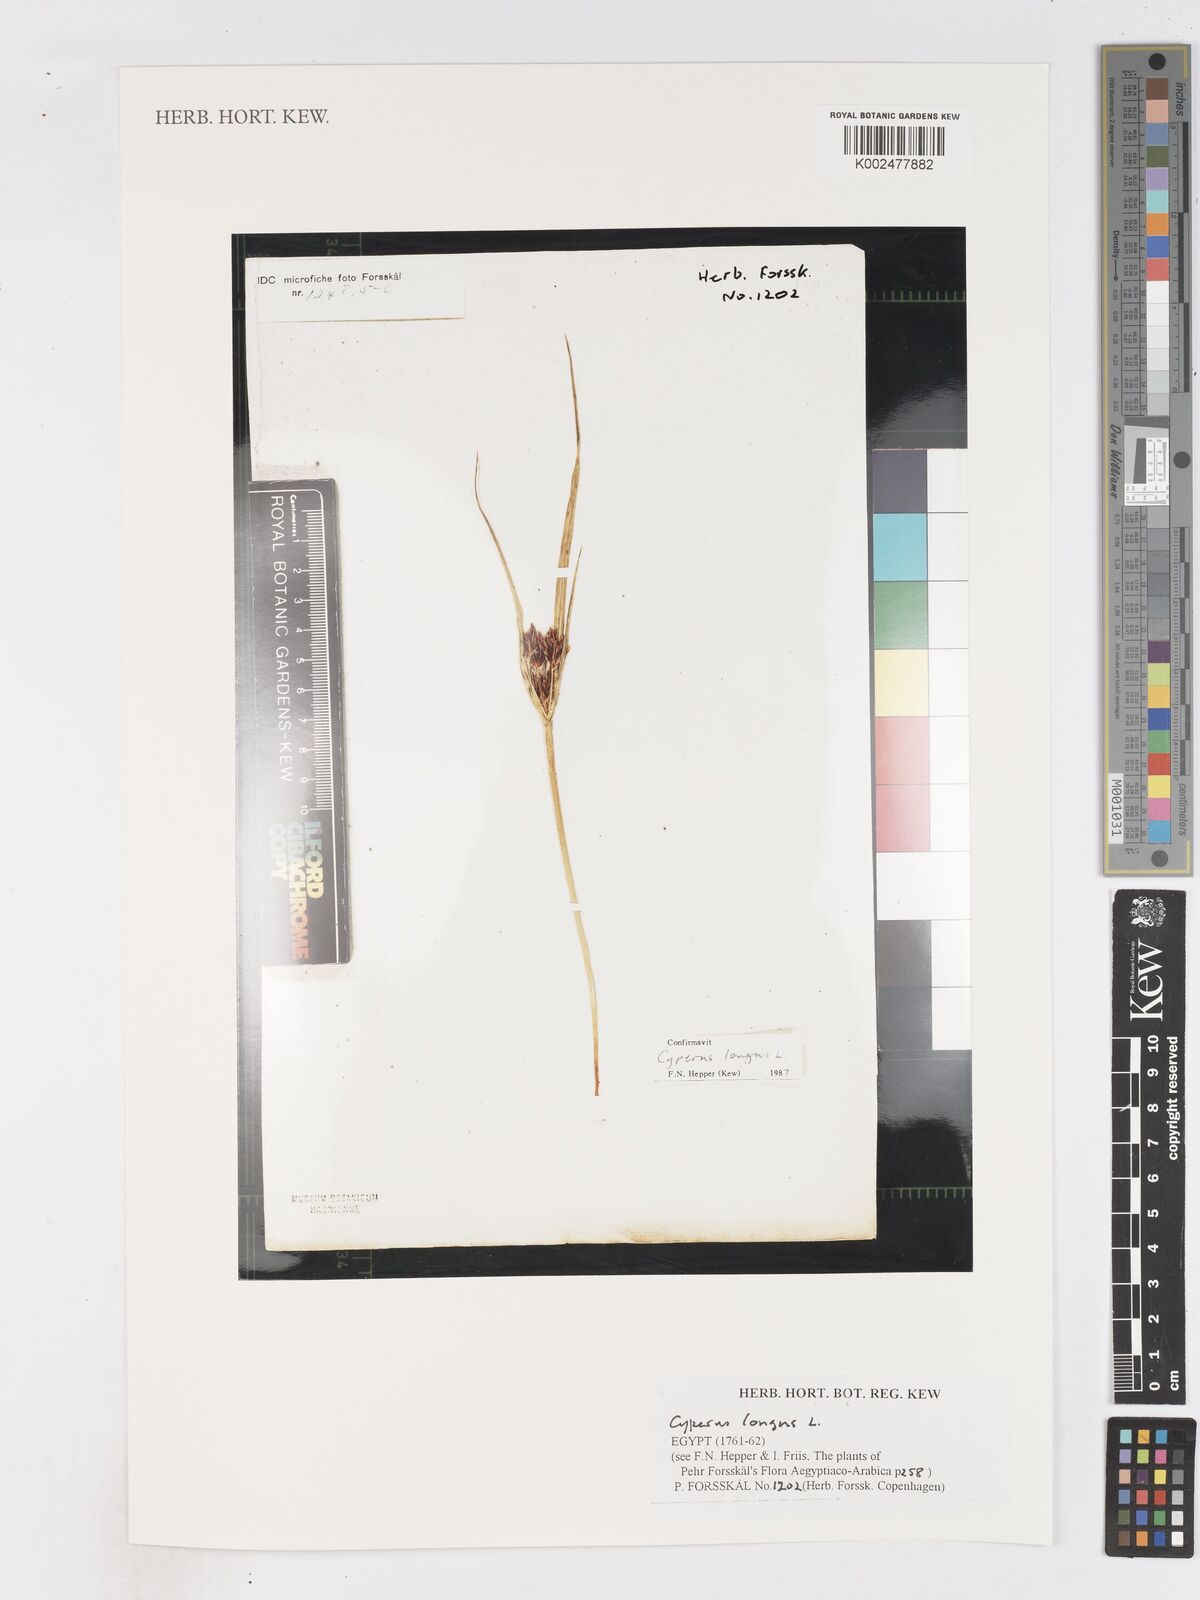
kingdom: Plantae
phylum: Tracheophyta
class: Liliopsida
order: Poales
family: Cyperaceae
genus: Cyperus
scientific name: Cyperus longus
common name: Galingale
